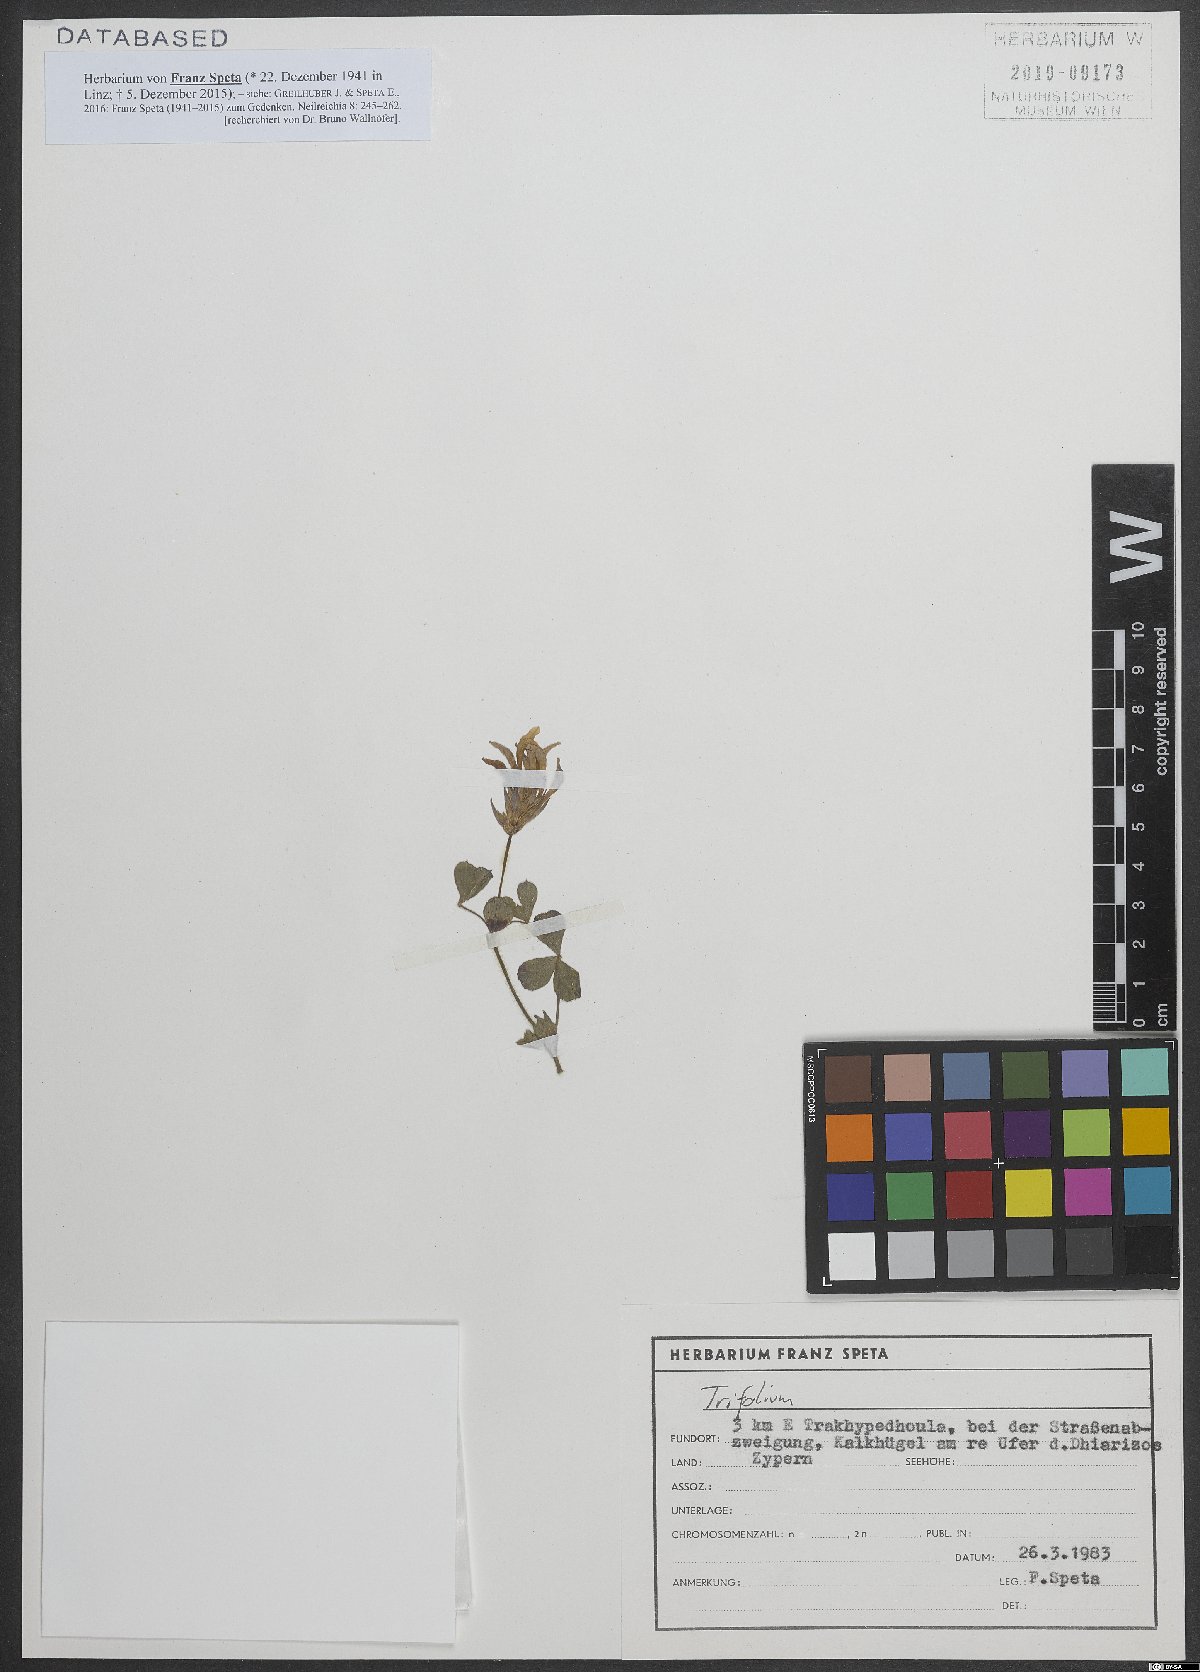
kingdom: Plantae
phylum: Tracheophyta
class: Magnoliopsida
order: Fabales
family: Fabaceae
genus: Trifolium
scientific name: Trifolium clypeatum
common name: Shield clover
